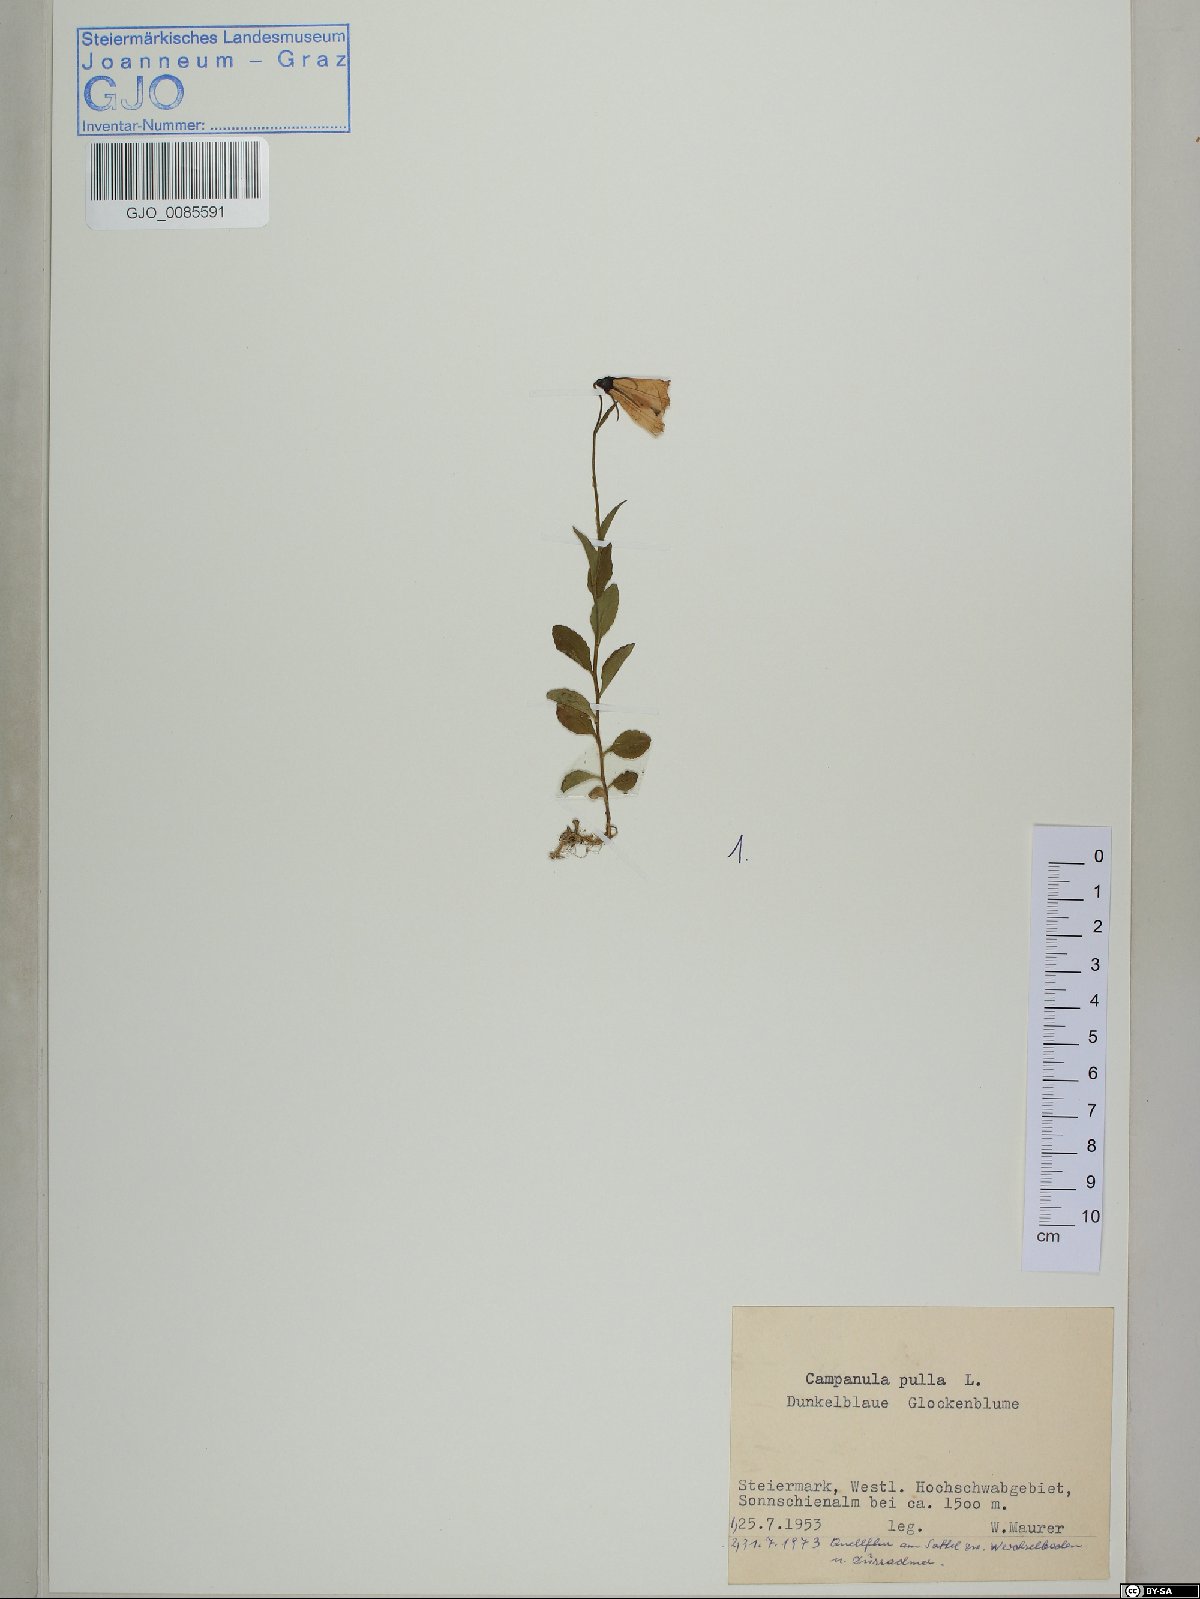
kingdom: Plantae
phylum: Tracheophyta
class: Magnoliopsida
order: Asterales
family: Campanulaceae
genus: Campanula
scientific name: Campanula pulla
